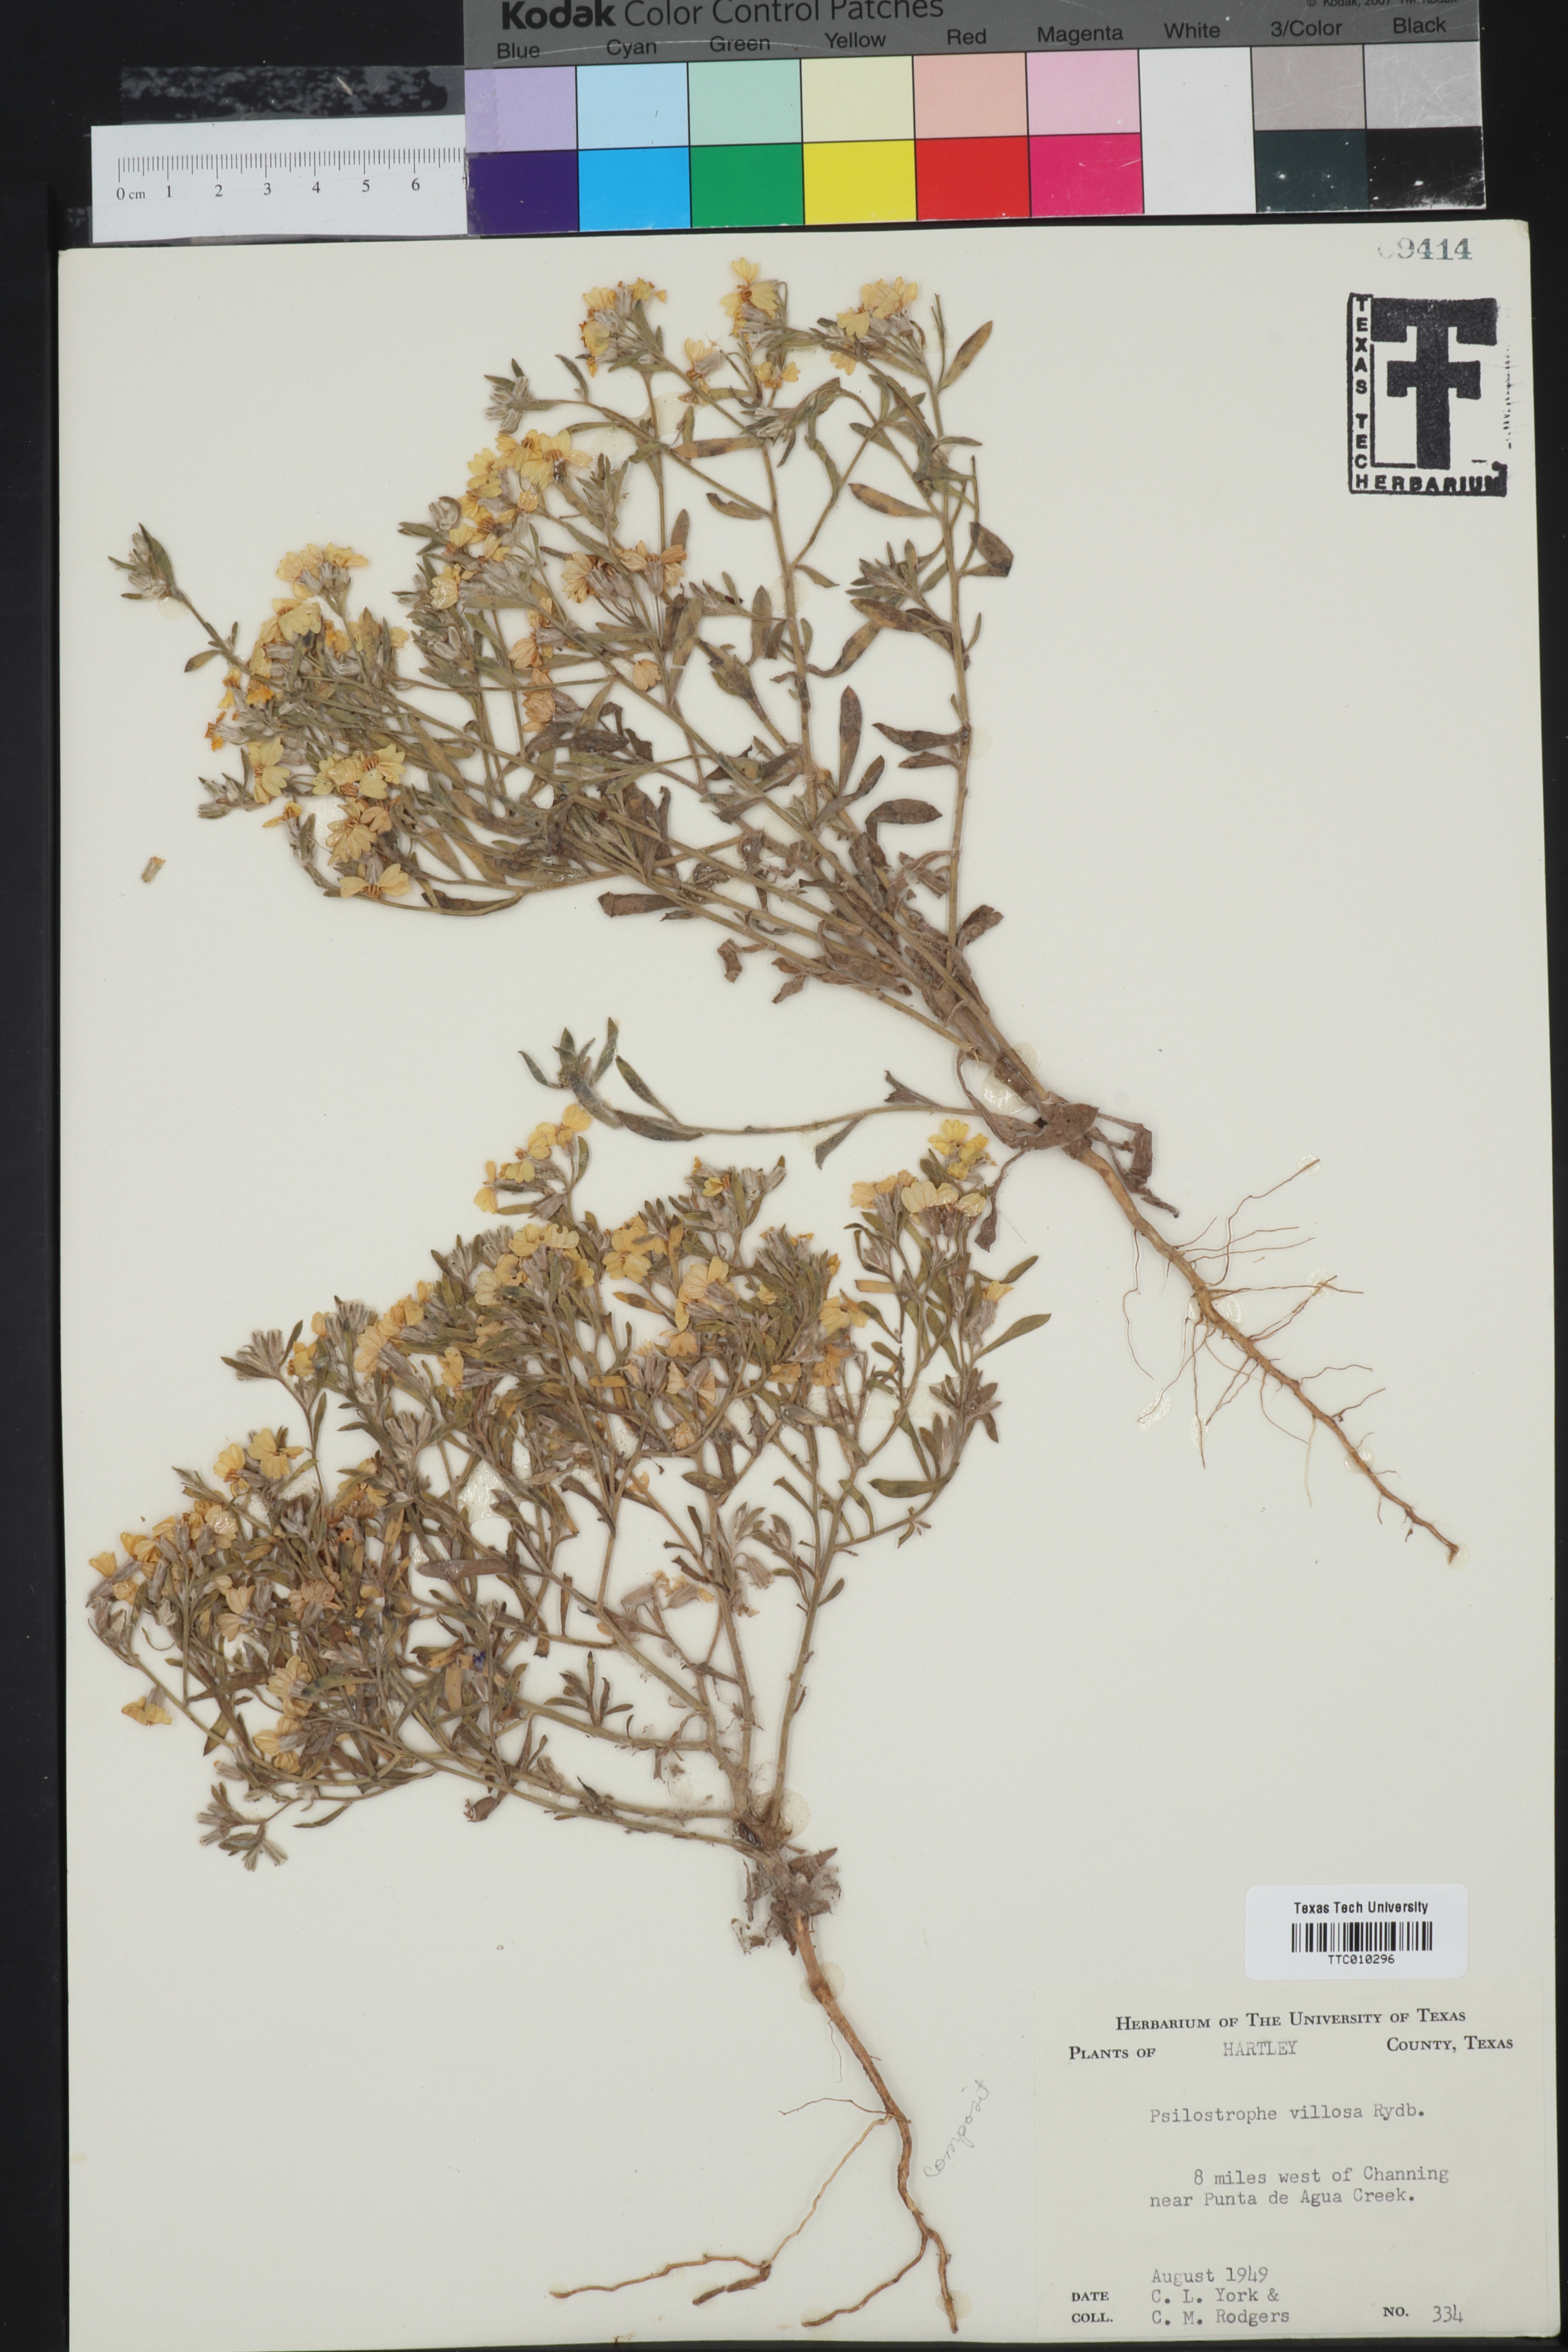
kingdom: Plantae
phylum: Tracheophyta
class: Magnoliopsida
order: Asterales
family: Asteraceae
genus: Psilostrophe
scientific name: Psilostrophe villosa
